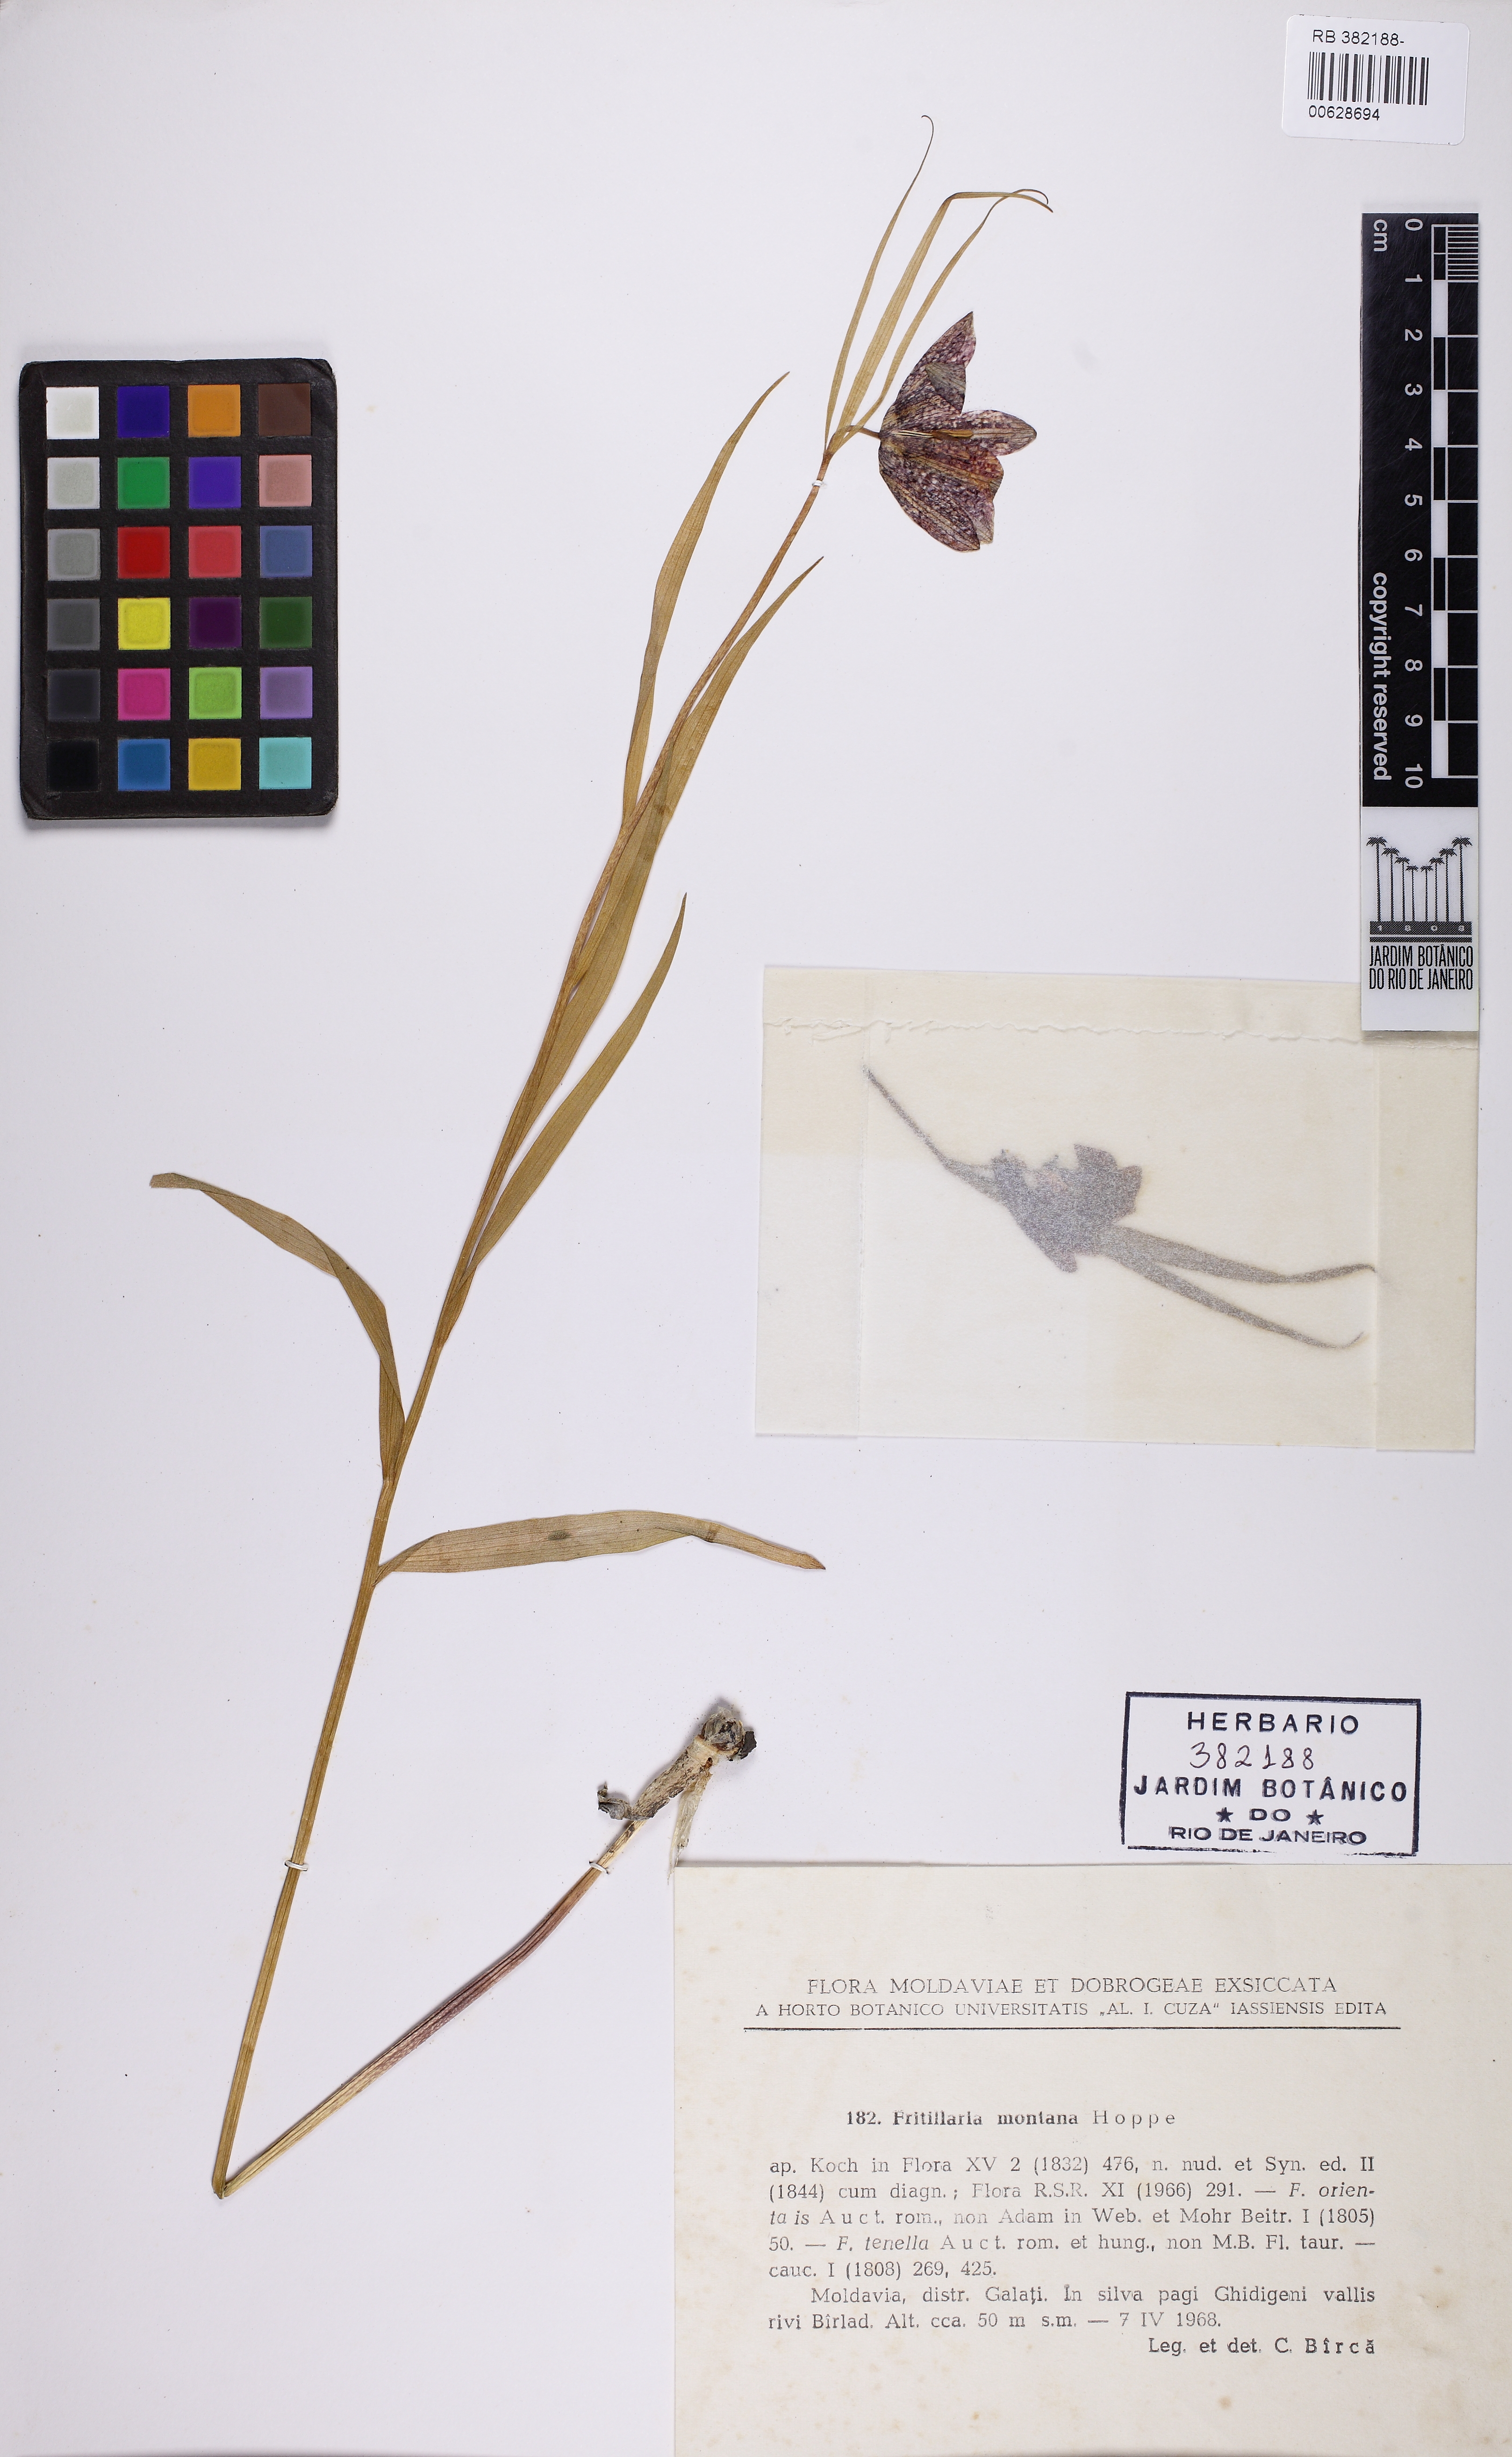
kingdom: Plantae
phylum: Tracheophyta
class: Liliopsida
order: Liliales
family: Liliaceae
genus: Fritillaria
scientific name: Fritillaria montana
